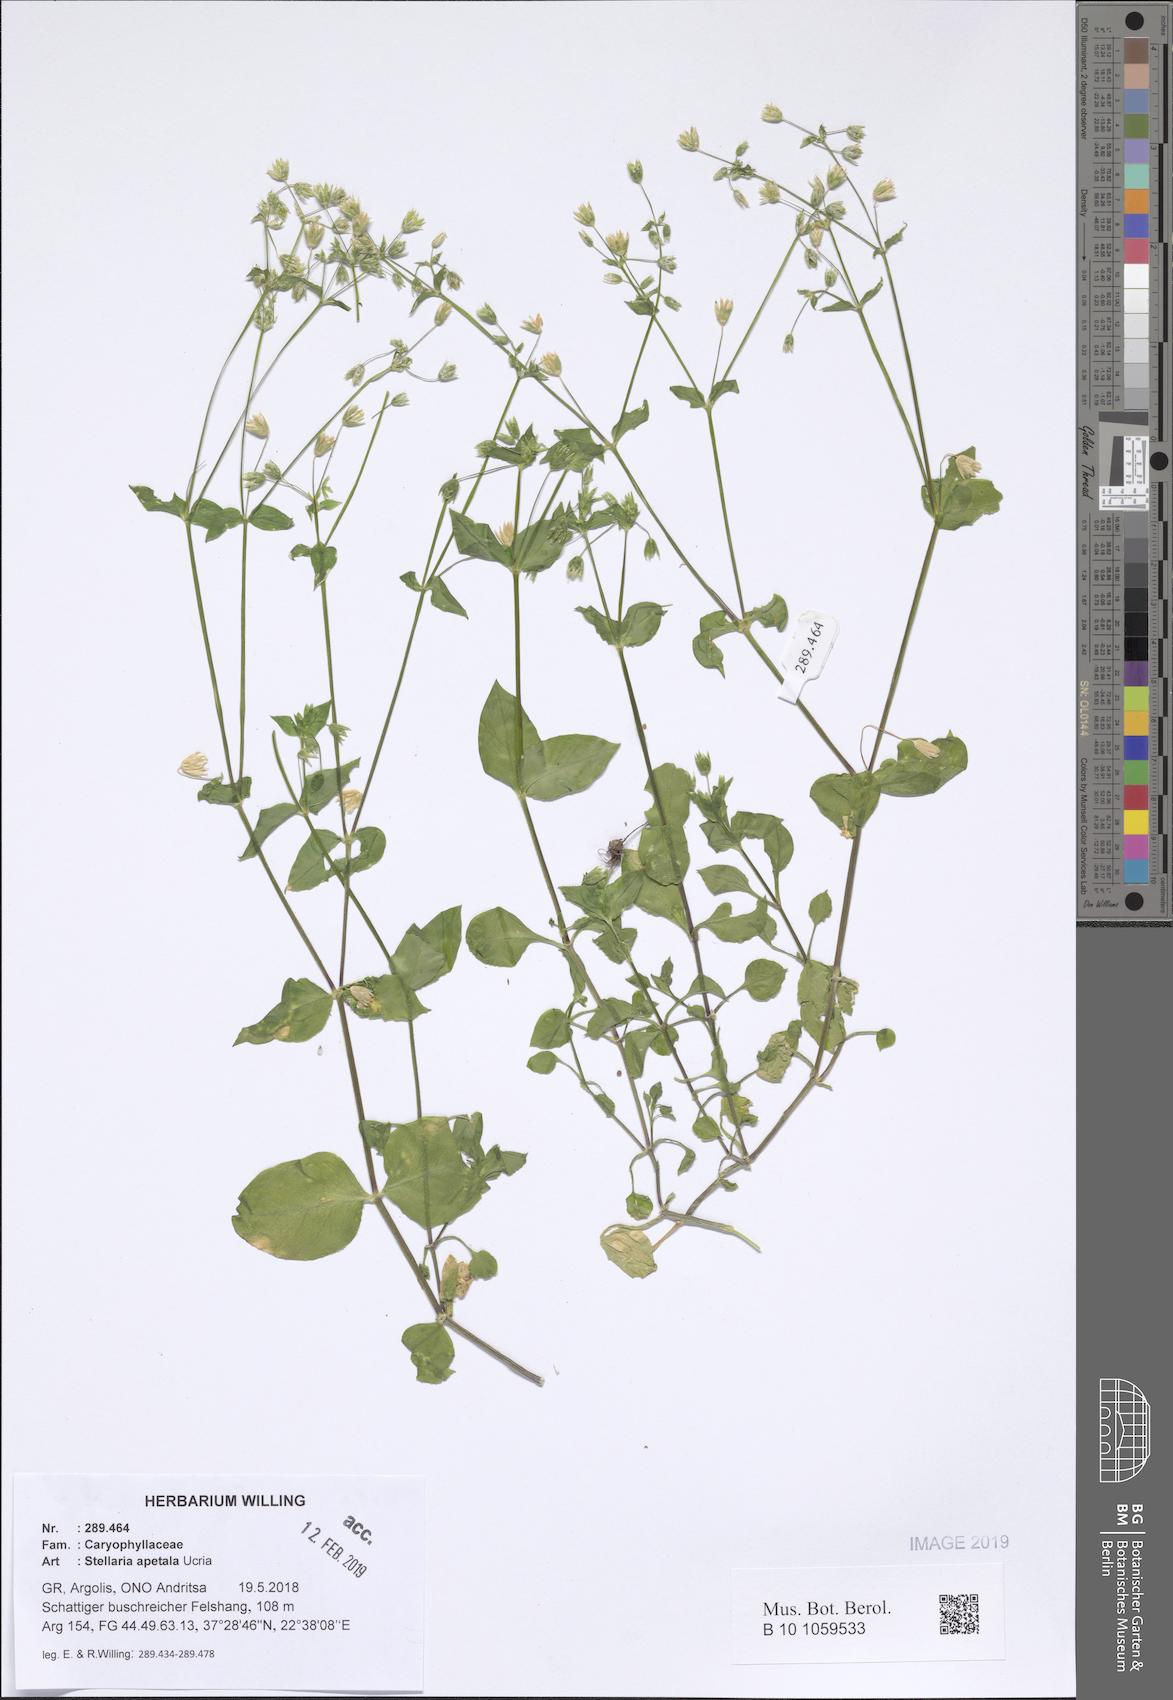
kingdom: Plantae
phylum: Tracheophyta
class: Magnoliopsida
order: Caryophyllales
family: Caryophyllaceae
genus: Stellaria
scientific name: Stellaria apetala
